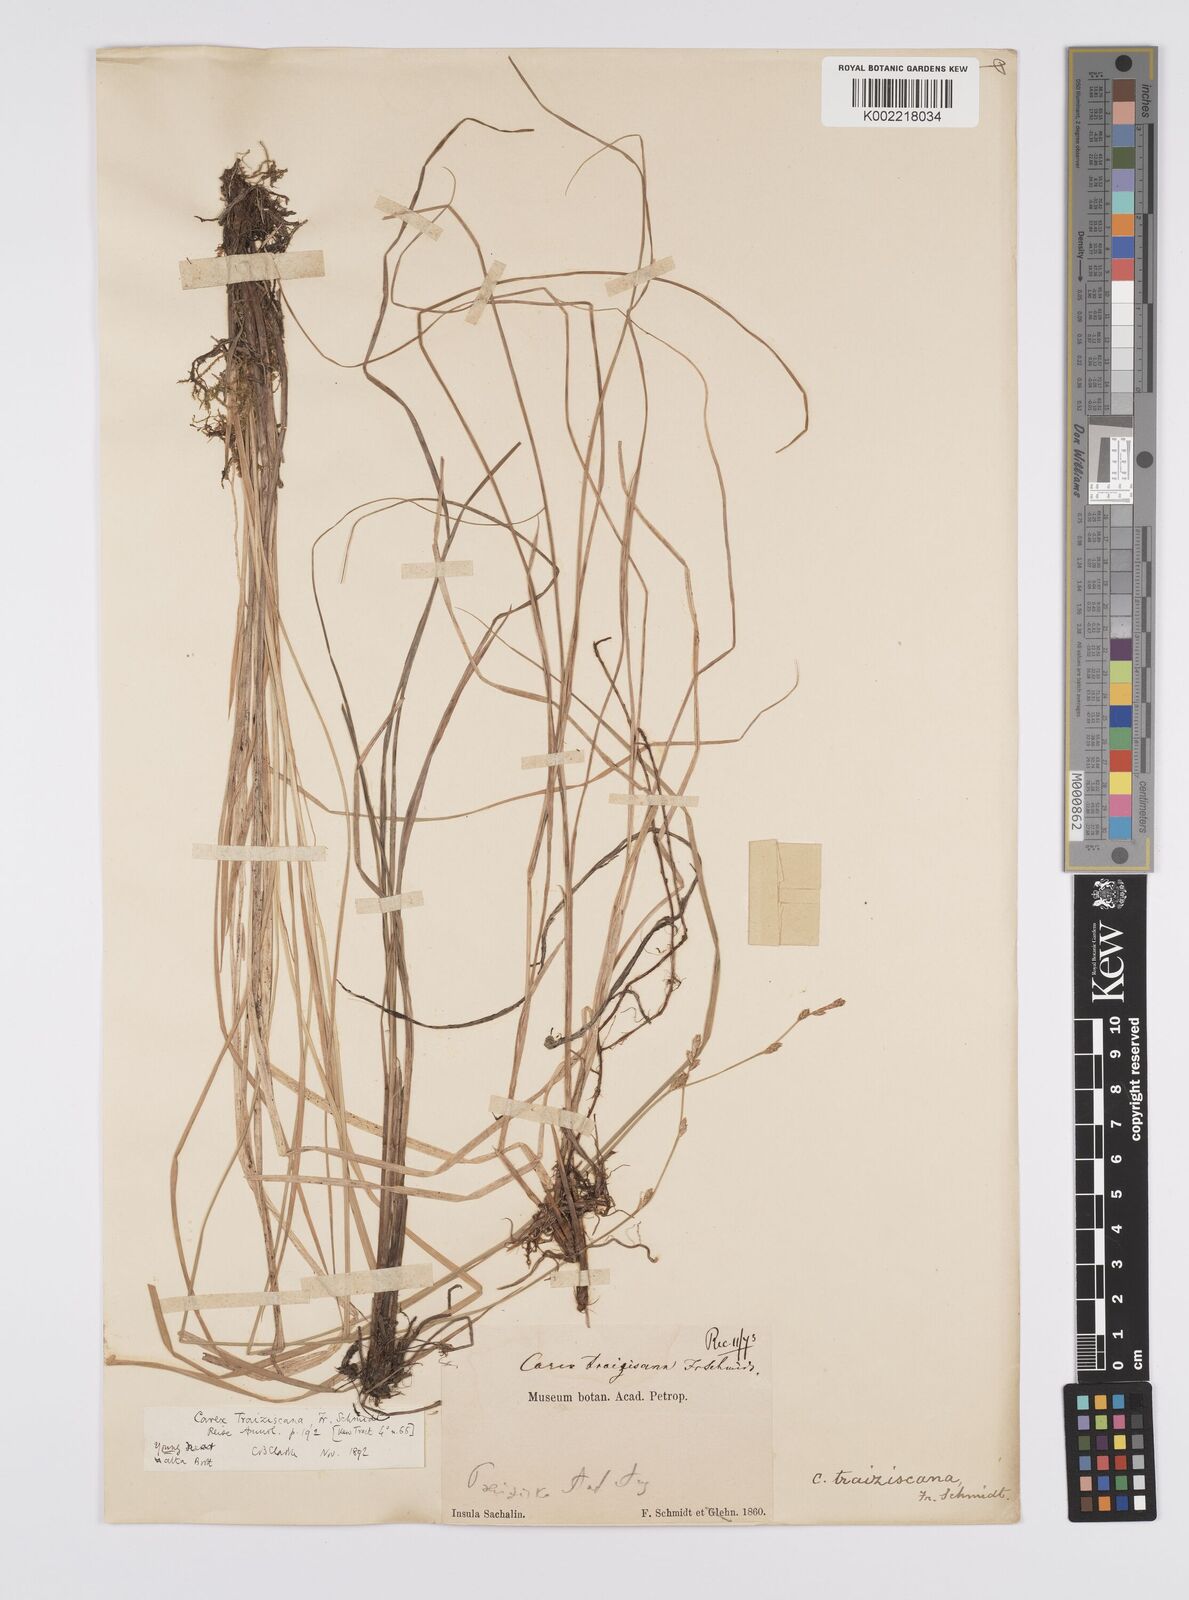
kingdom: Plantae
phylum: Tracheophyta
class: Liliopsida
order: Poales
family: Cyperaceae
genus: Carex
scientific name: Carex traiziscana
